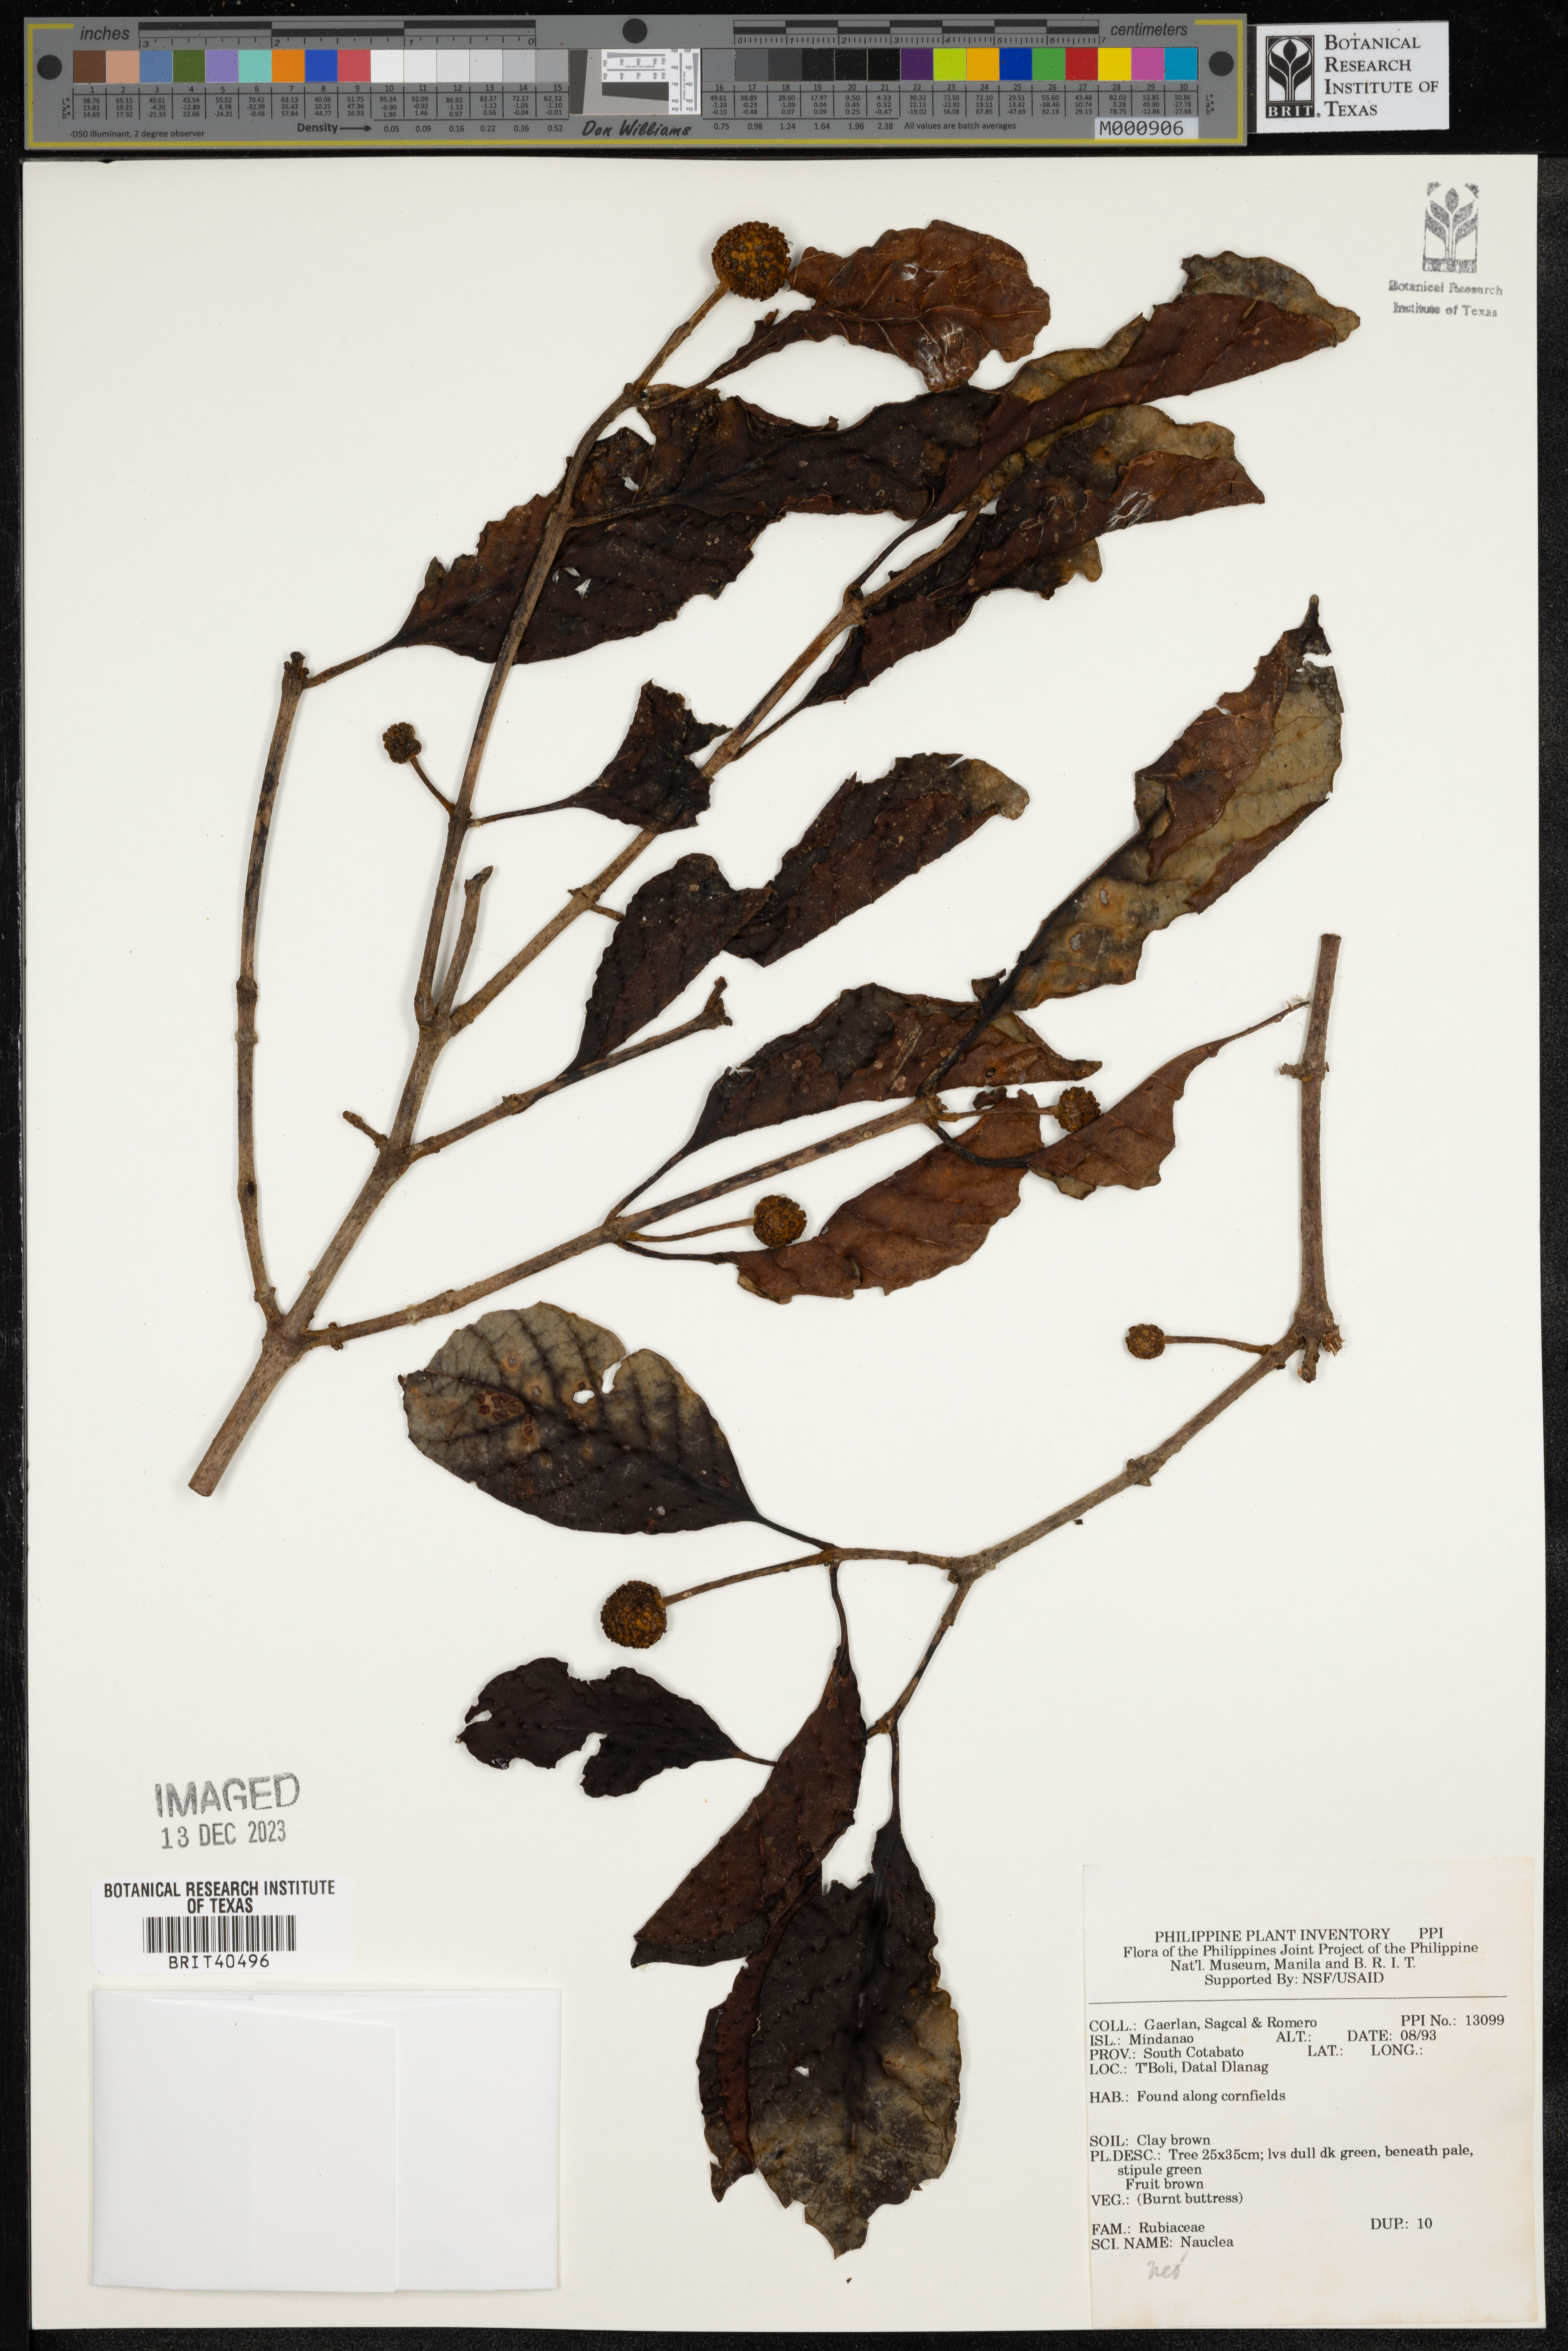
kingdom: Plantae
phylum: Tracheophyta
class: Magnoliopsida
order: Gentianales
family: Rubiaceae
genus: Neonauclea
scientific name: Neonauclea
